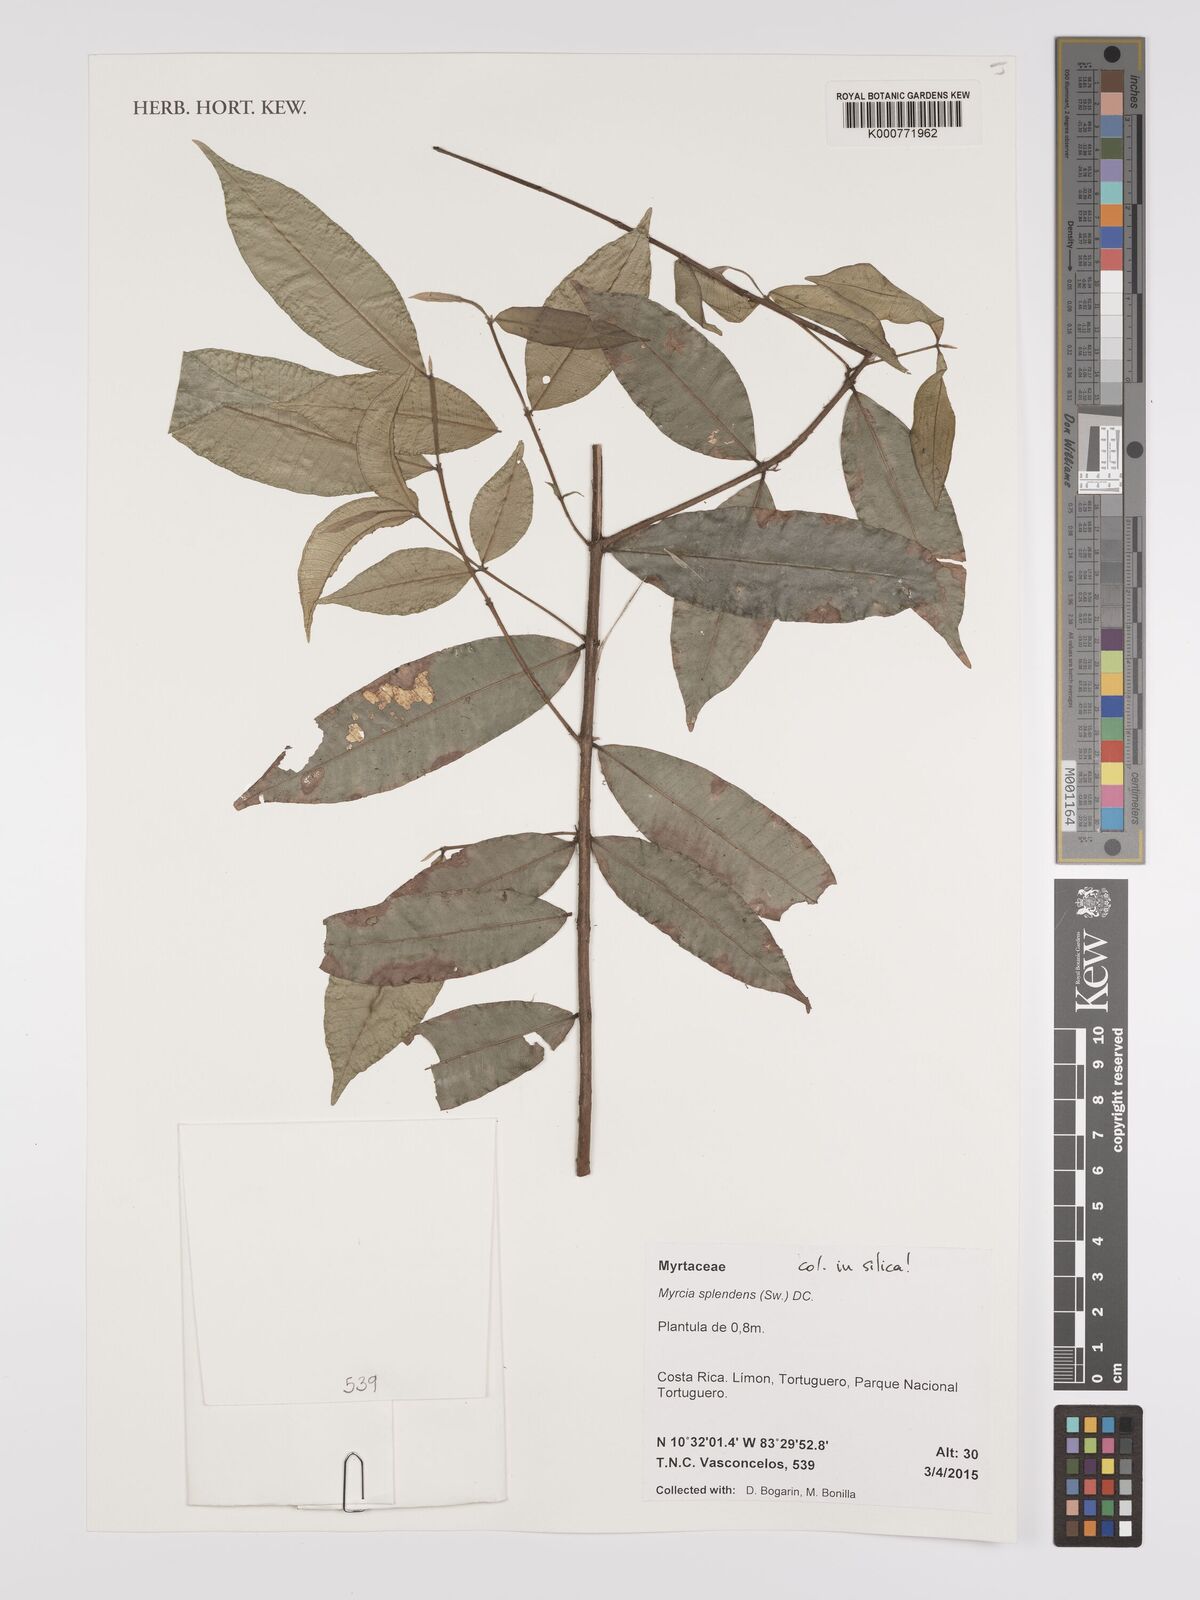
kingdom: Plantae
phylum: Tracheophyta
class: Magnoliopsida
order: Myrtales
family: Myrtaceae
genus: Myrcia
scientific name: Myrcia splendens
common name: Surinam cherry
